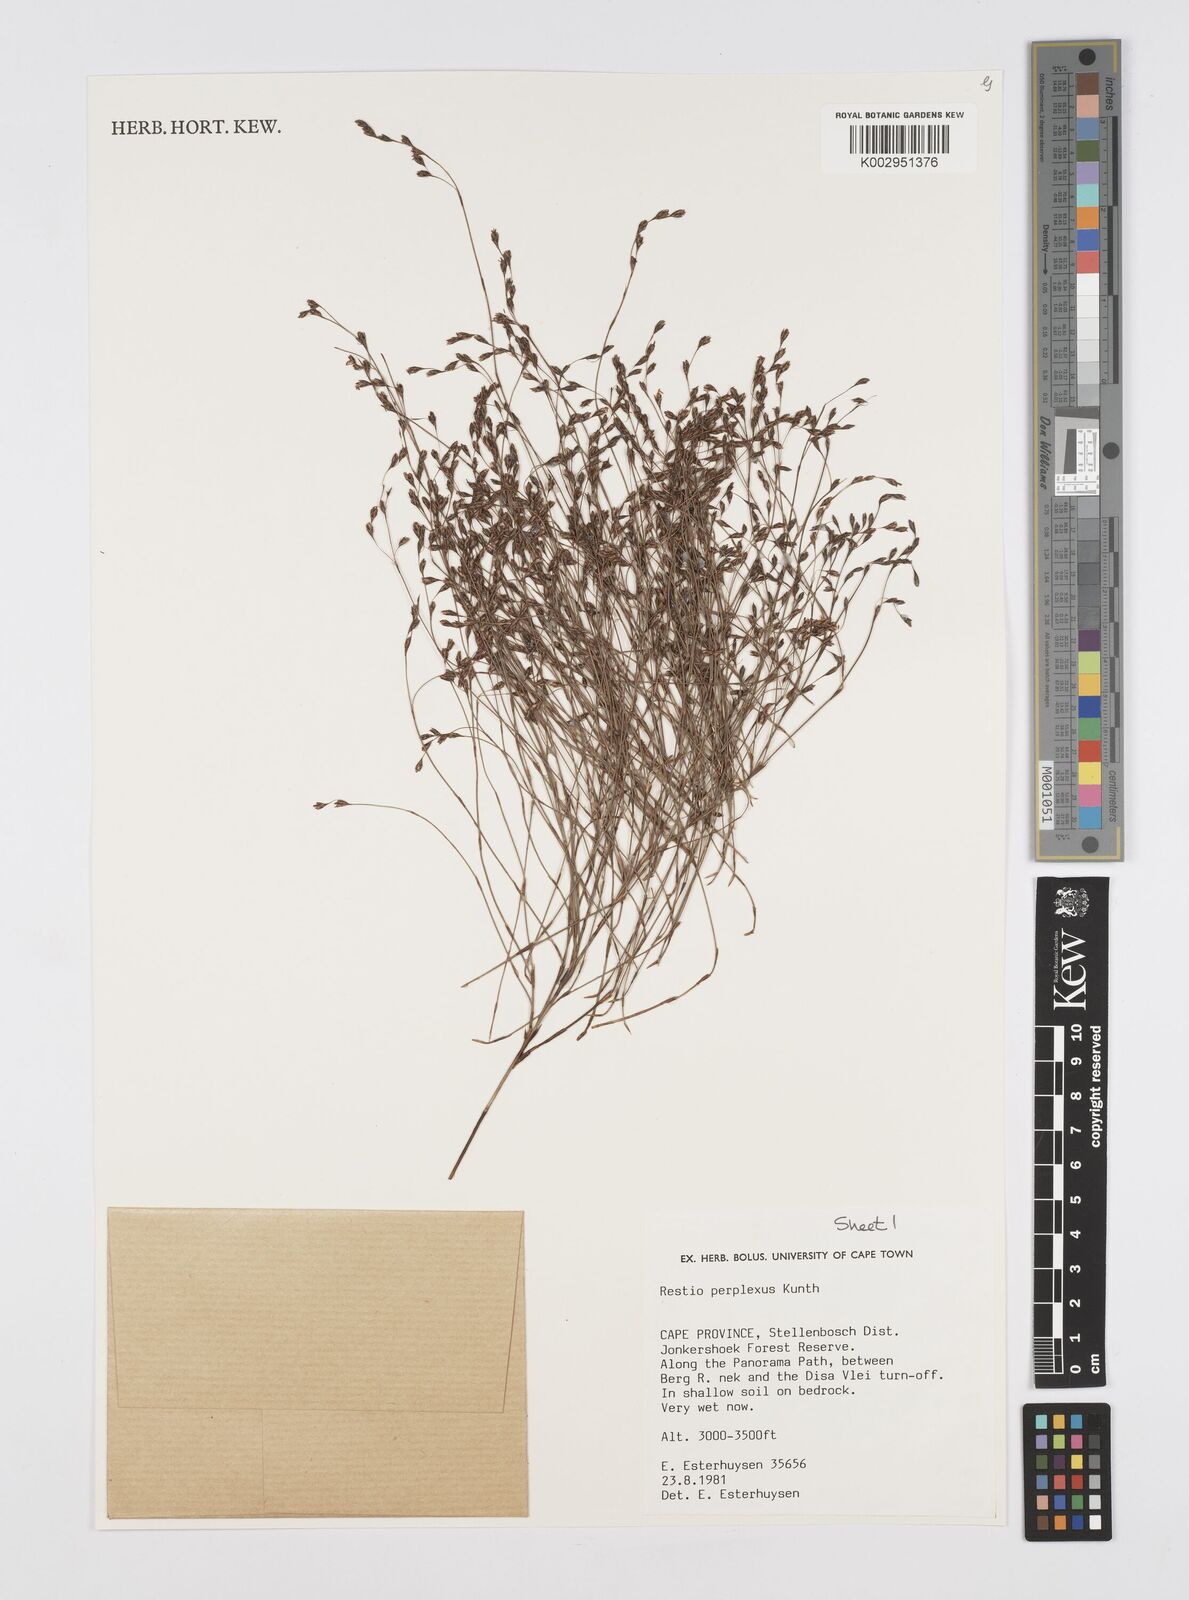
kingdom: Plantae
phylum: Tracheophyta
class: Liliopsida
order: Poales
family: Restionaceae
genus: Restio
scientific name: Restio perplexus
